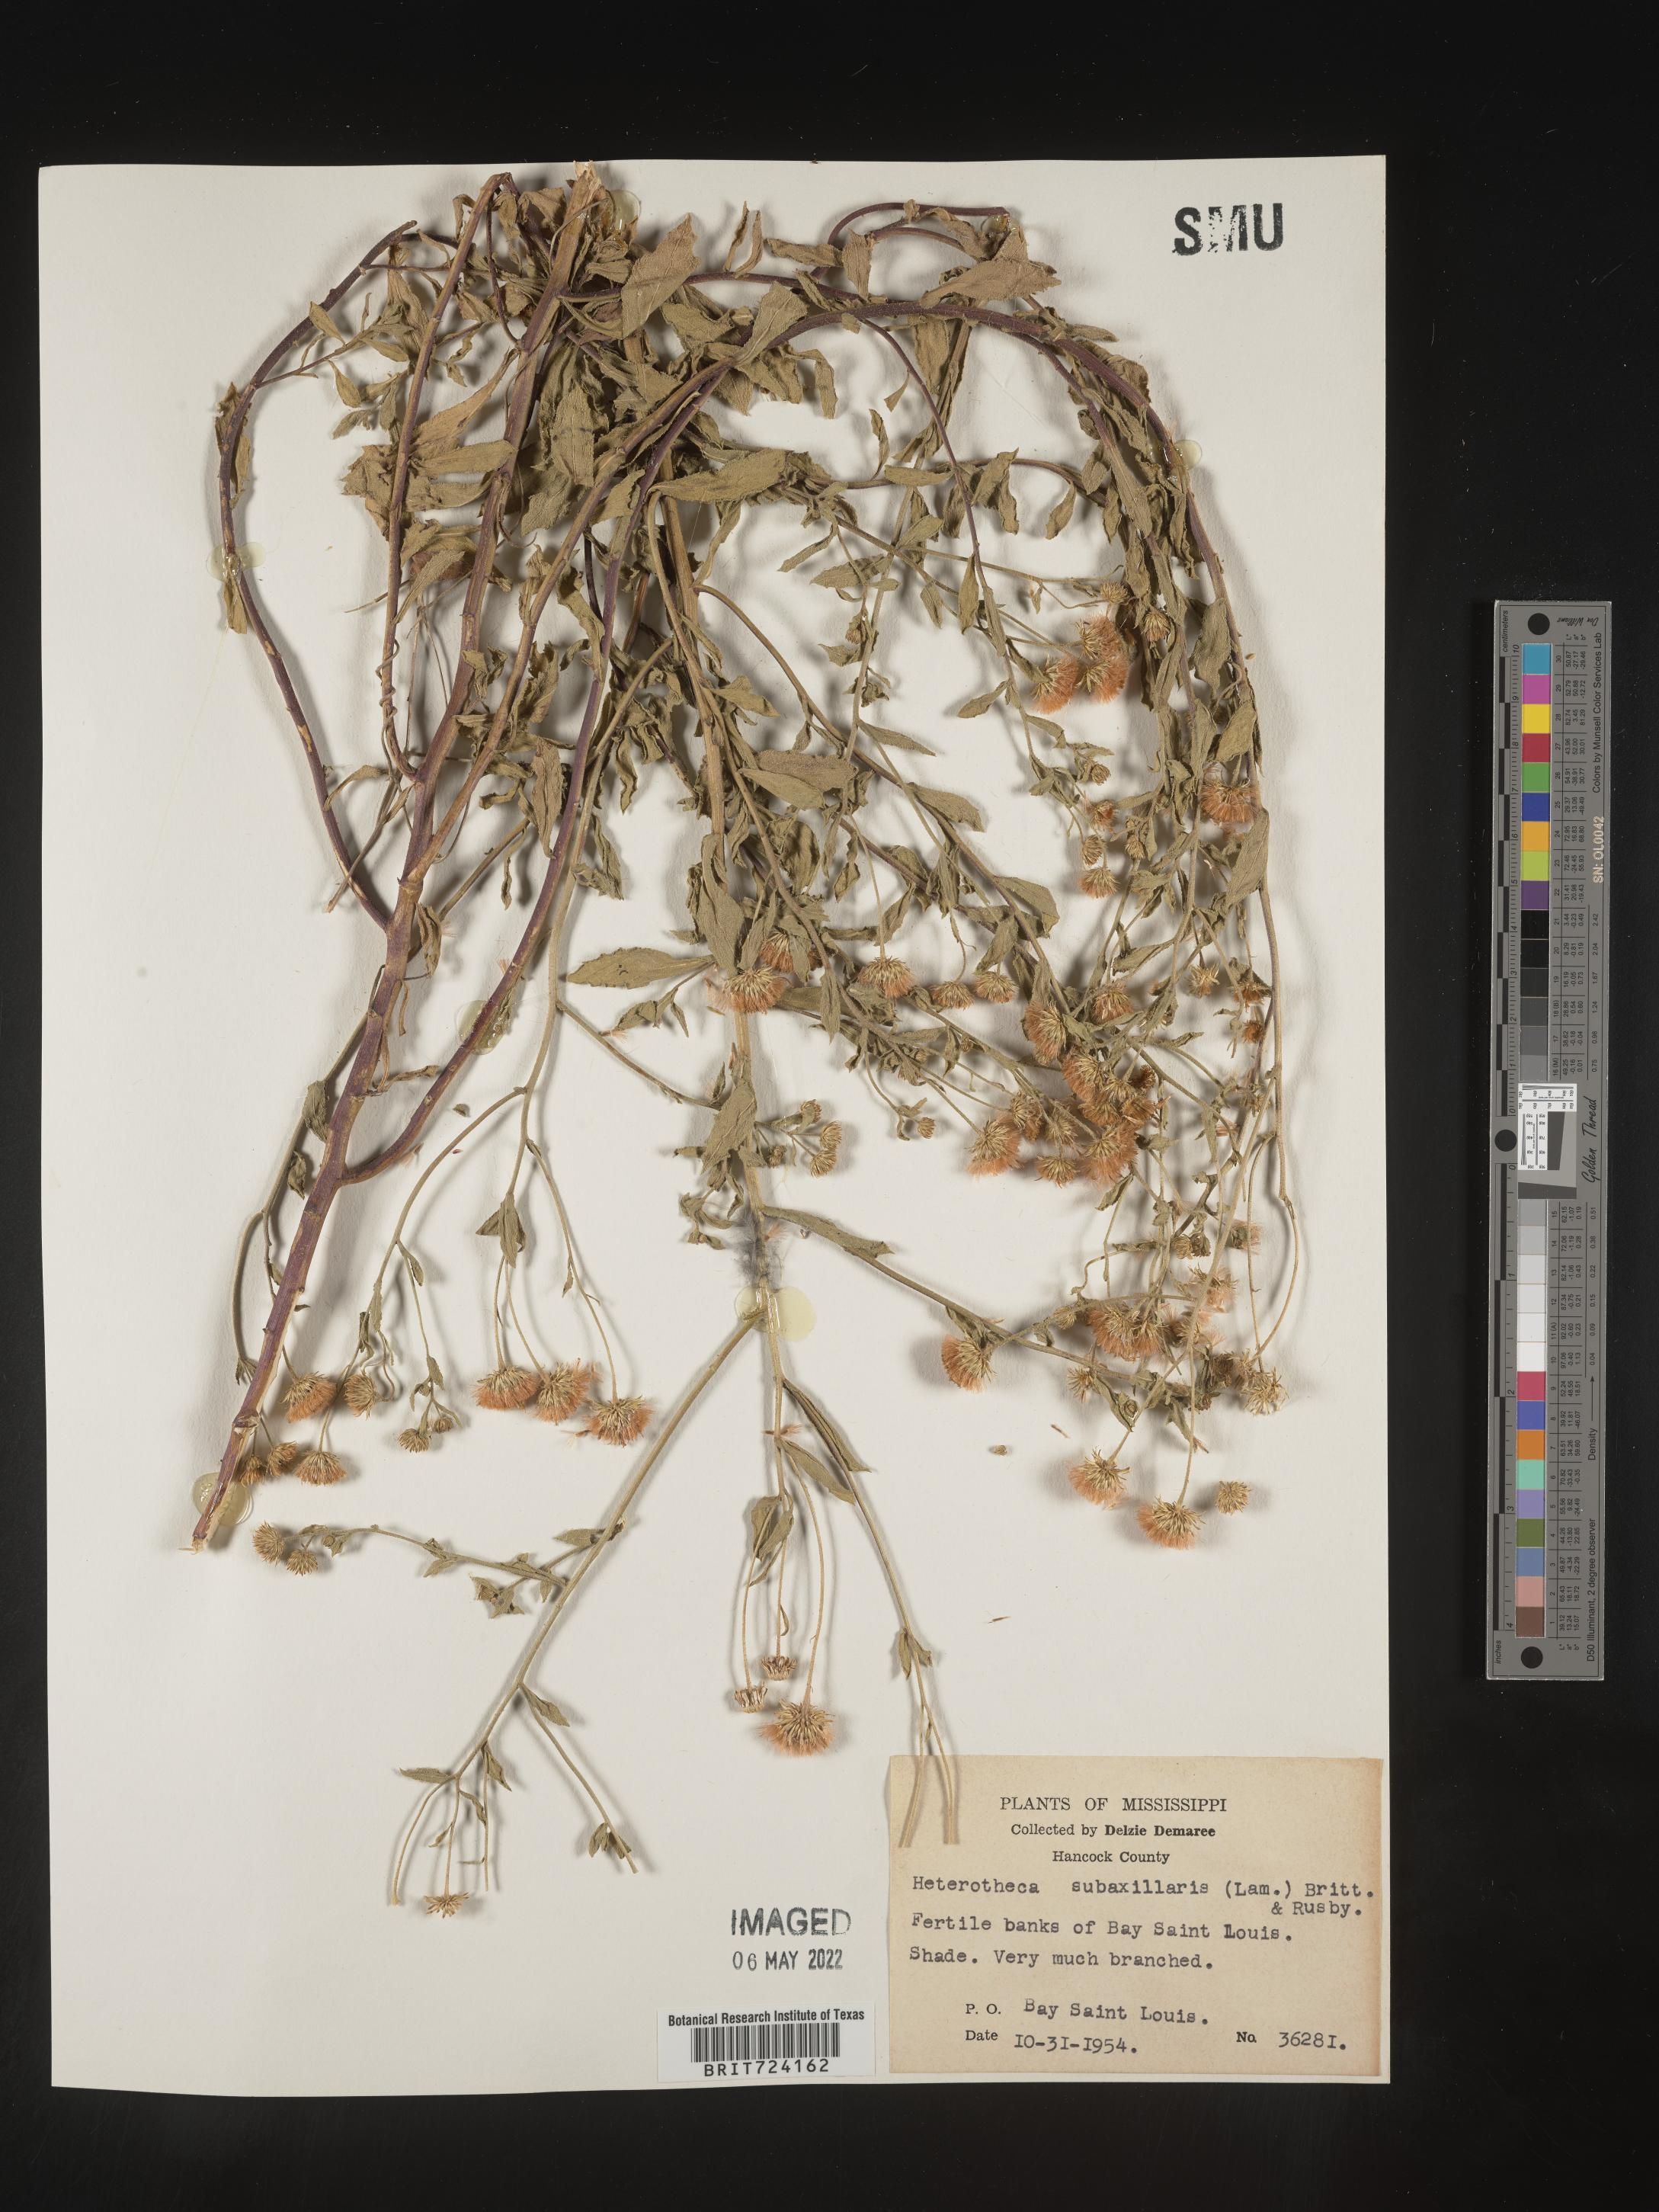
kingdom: Plantae
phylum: Tracheophyta
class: Magnoliopsida
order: Asterales
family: Asteraceae
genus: Heterotheca
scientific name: Heterotheca subaxillaris
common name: Camphorweed
